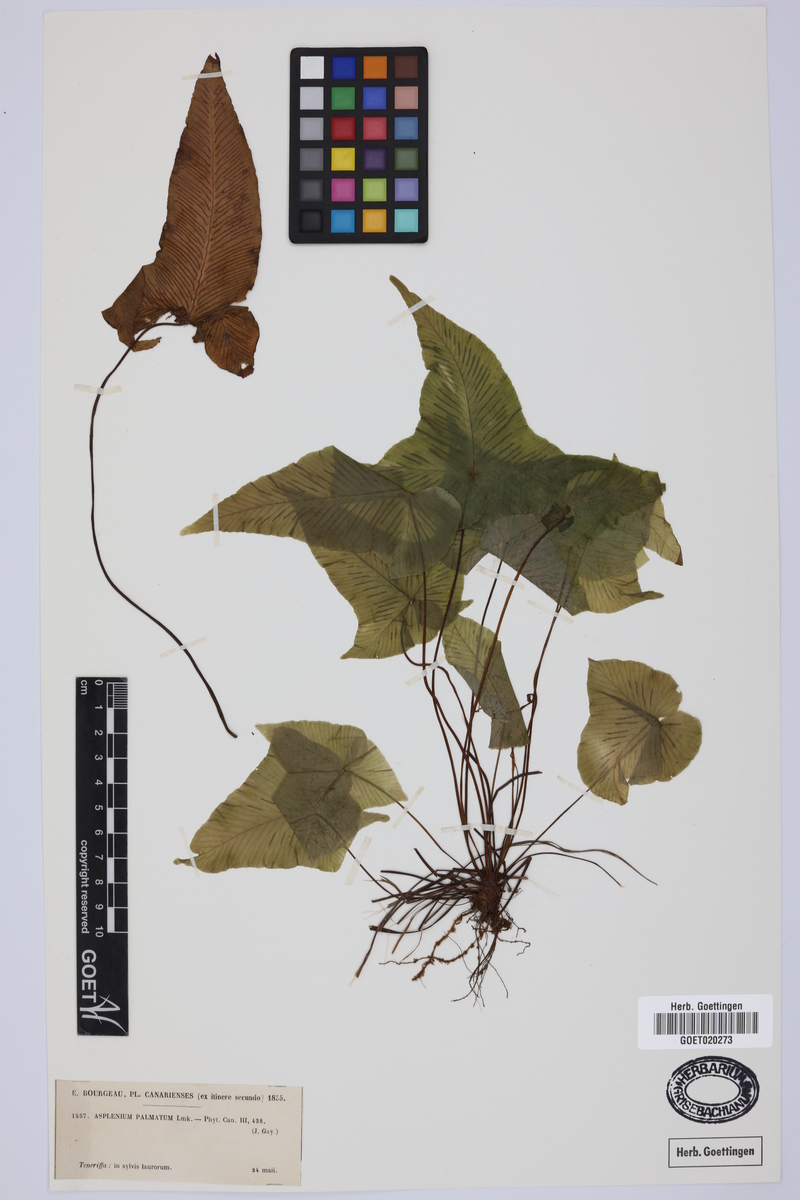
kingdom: Plantae
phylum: Tracheophyta
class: Polypodiopsida
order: Polypodiales
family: Aspleniaceae
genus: Asplenium
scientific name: Asplenium hemionitis
